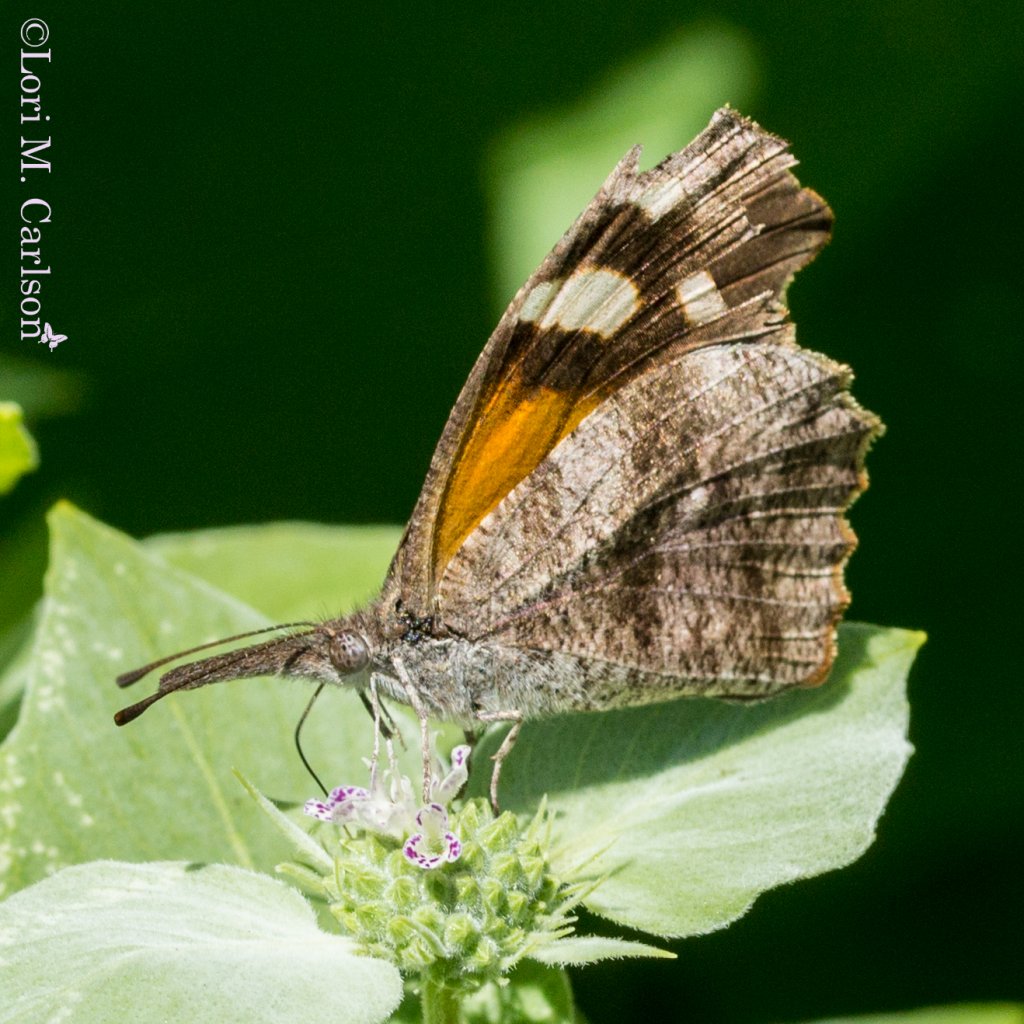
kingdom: Animalia
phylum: Arthropoda
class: Insecta
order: Lepidoptera
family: Nymphalidae
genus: Libytheana
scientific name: Libytheana carinenta
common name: American Snout
